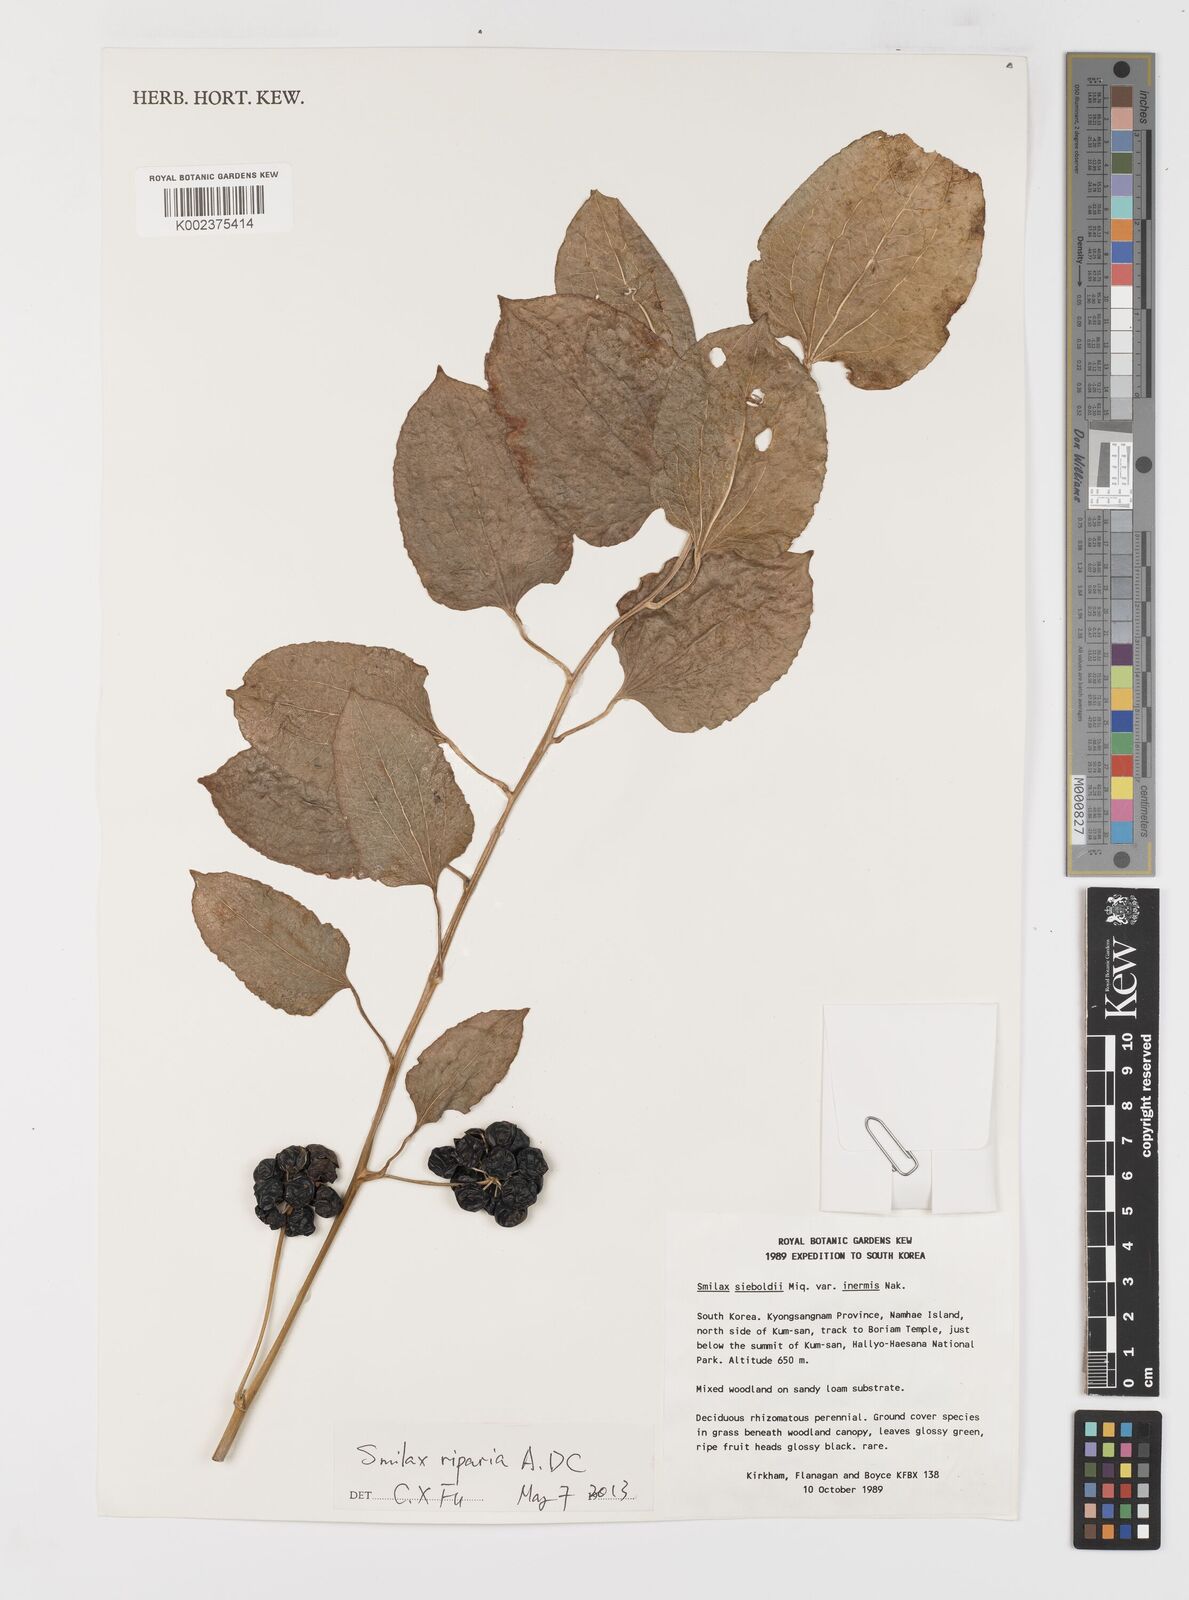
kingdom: Plantae
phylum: Tracheophyta
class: Liliopsida
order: Liliales
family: Smilacaceae
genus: Smilax
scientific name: Smilax riparia
